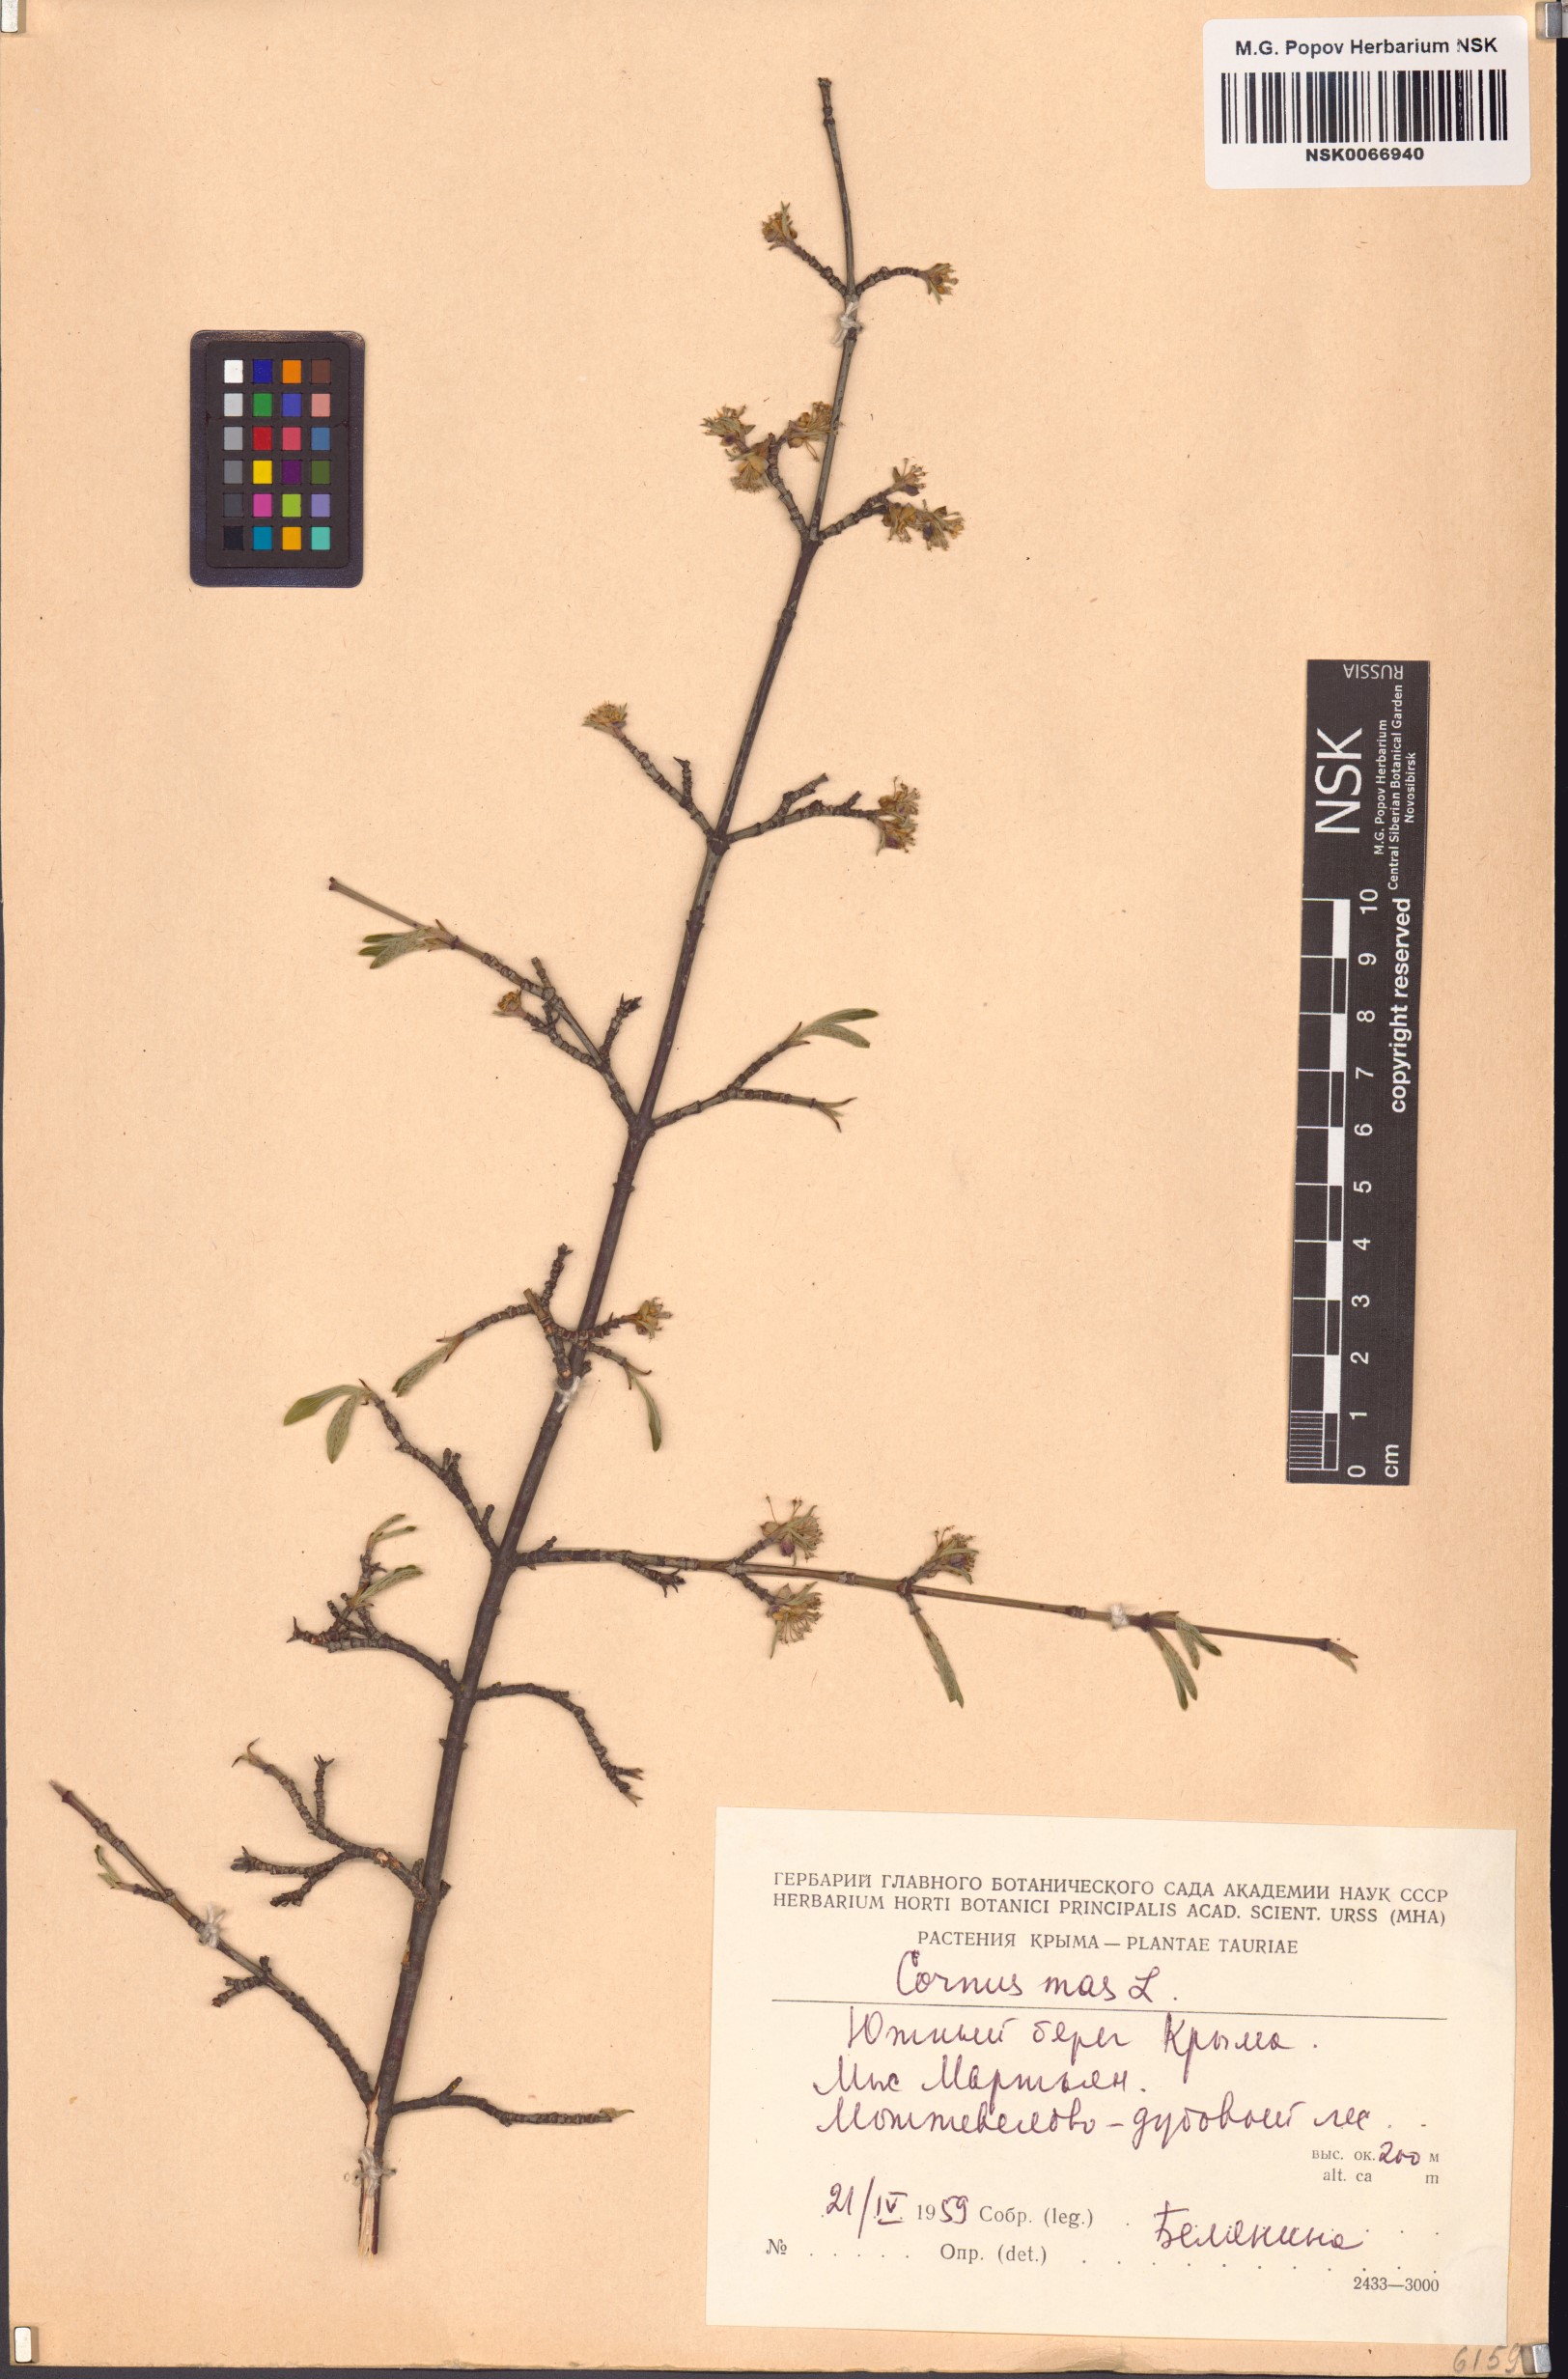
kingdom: Plantae
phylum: Tracheophyta
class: Magnoliopsida
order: Cornales
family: Cornaceae
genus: Cornus
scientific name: Cornus mas
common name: Cornelian-cherry
